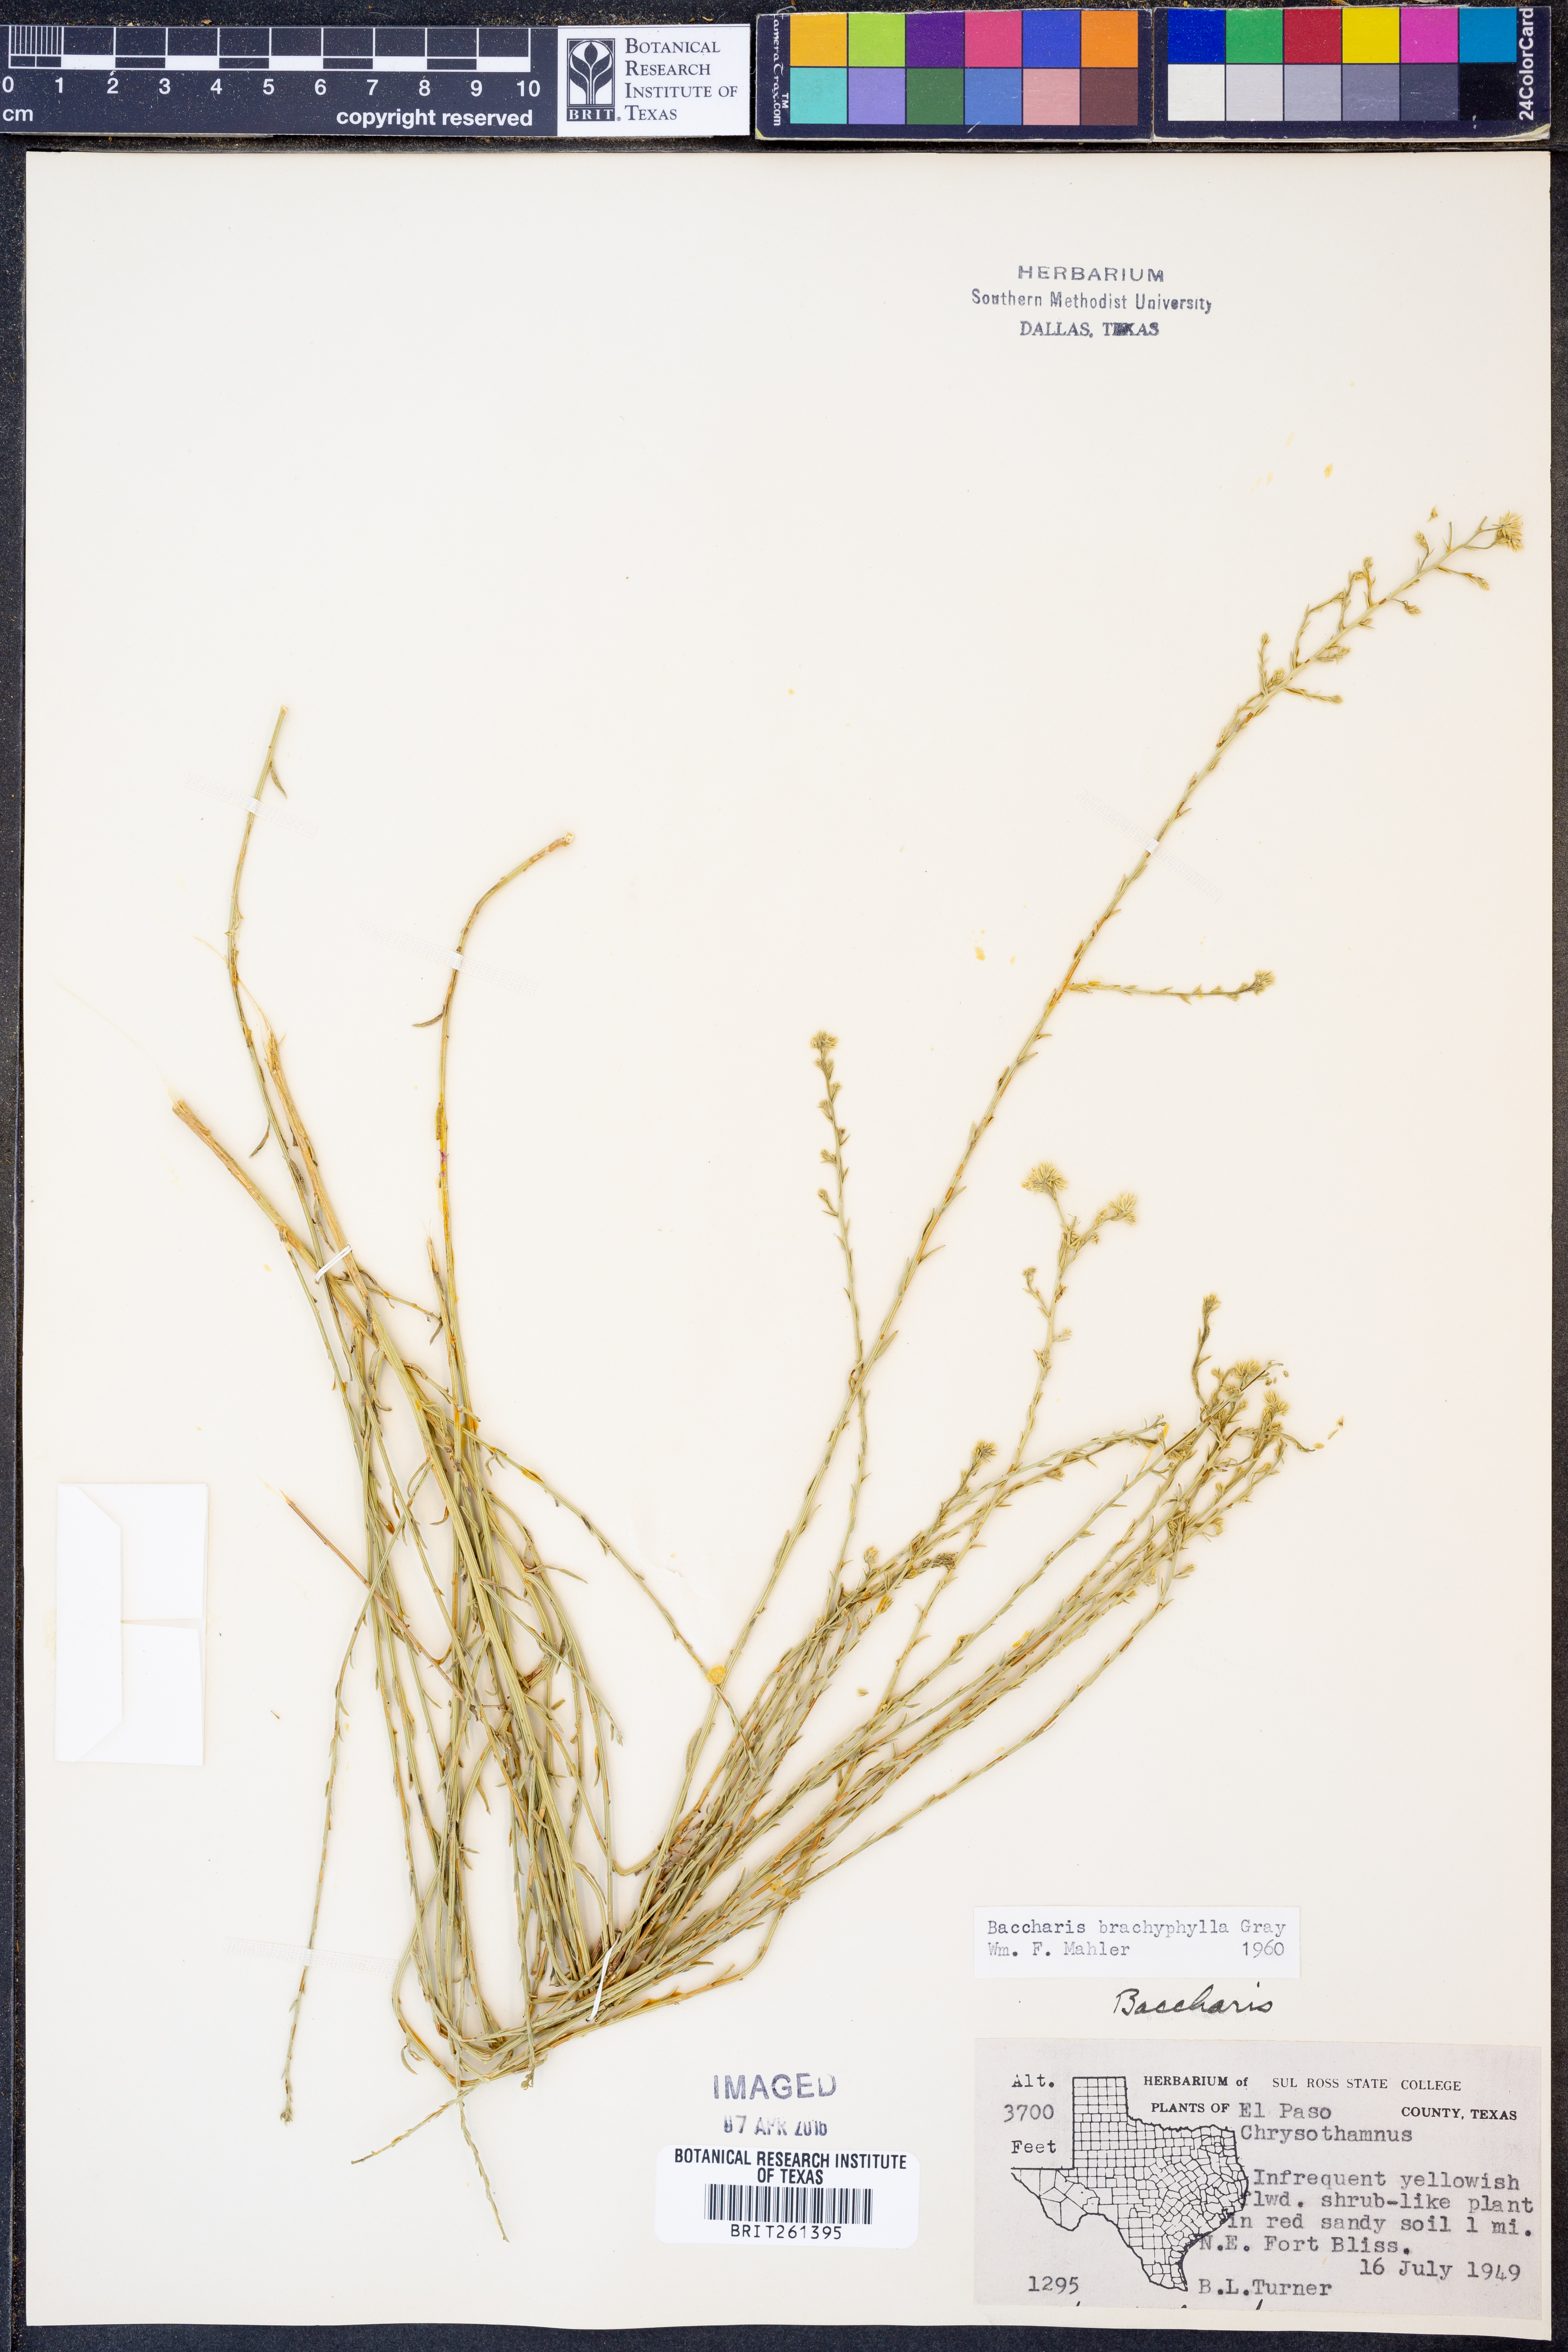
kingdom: Plantae
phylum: Tracheophyta
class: Magnoliopsida
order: Asterales
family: Asteraceae
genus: Baccharis
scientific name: Baccharis brachyphylla
